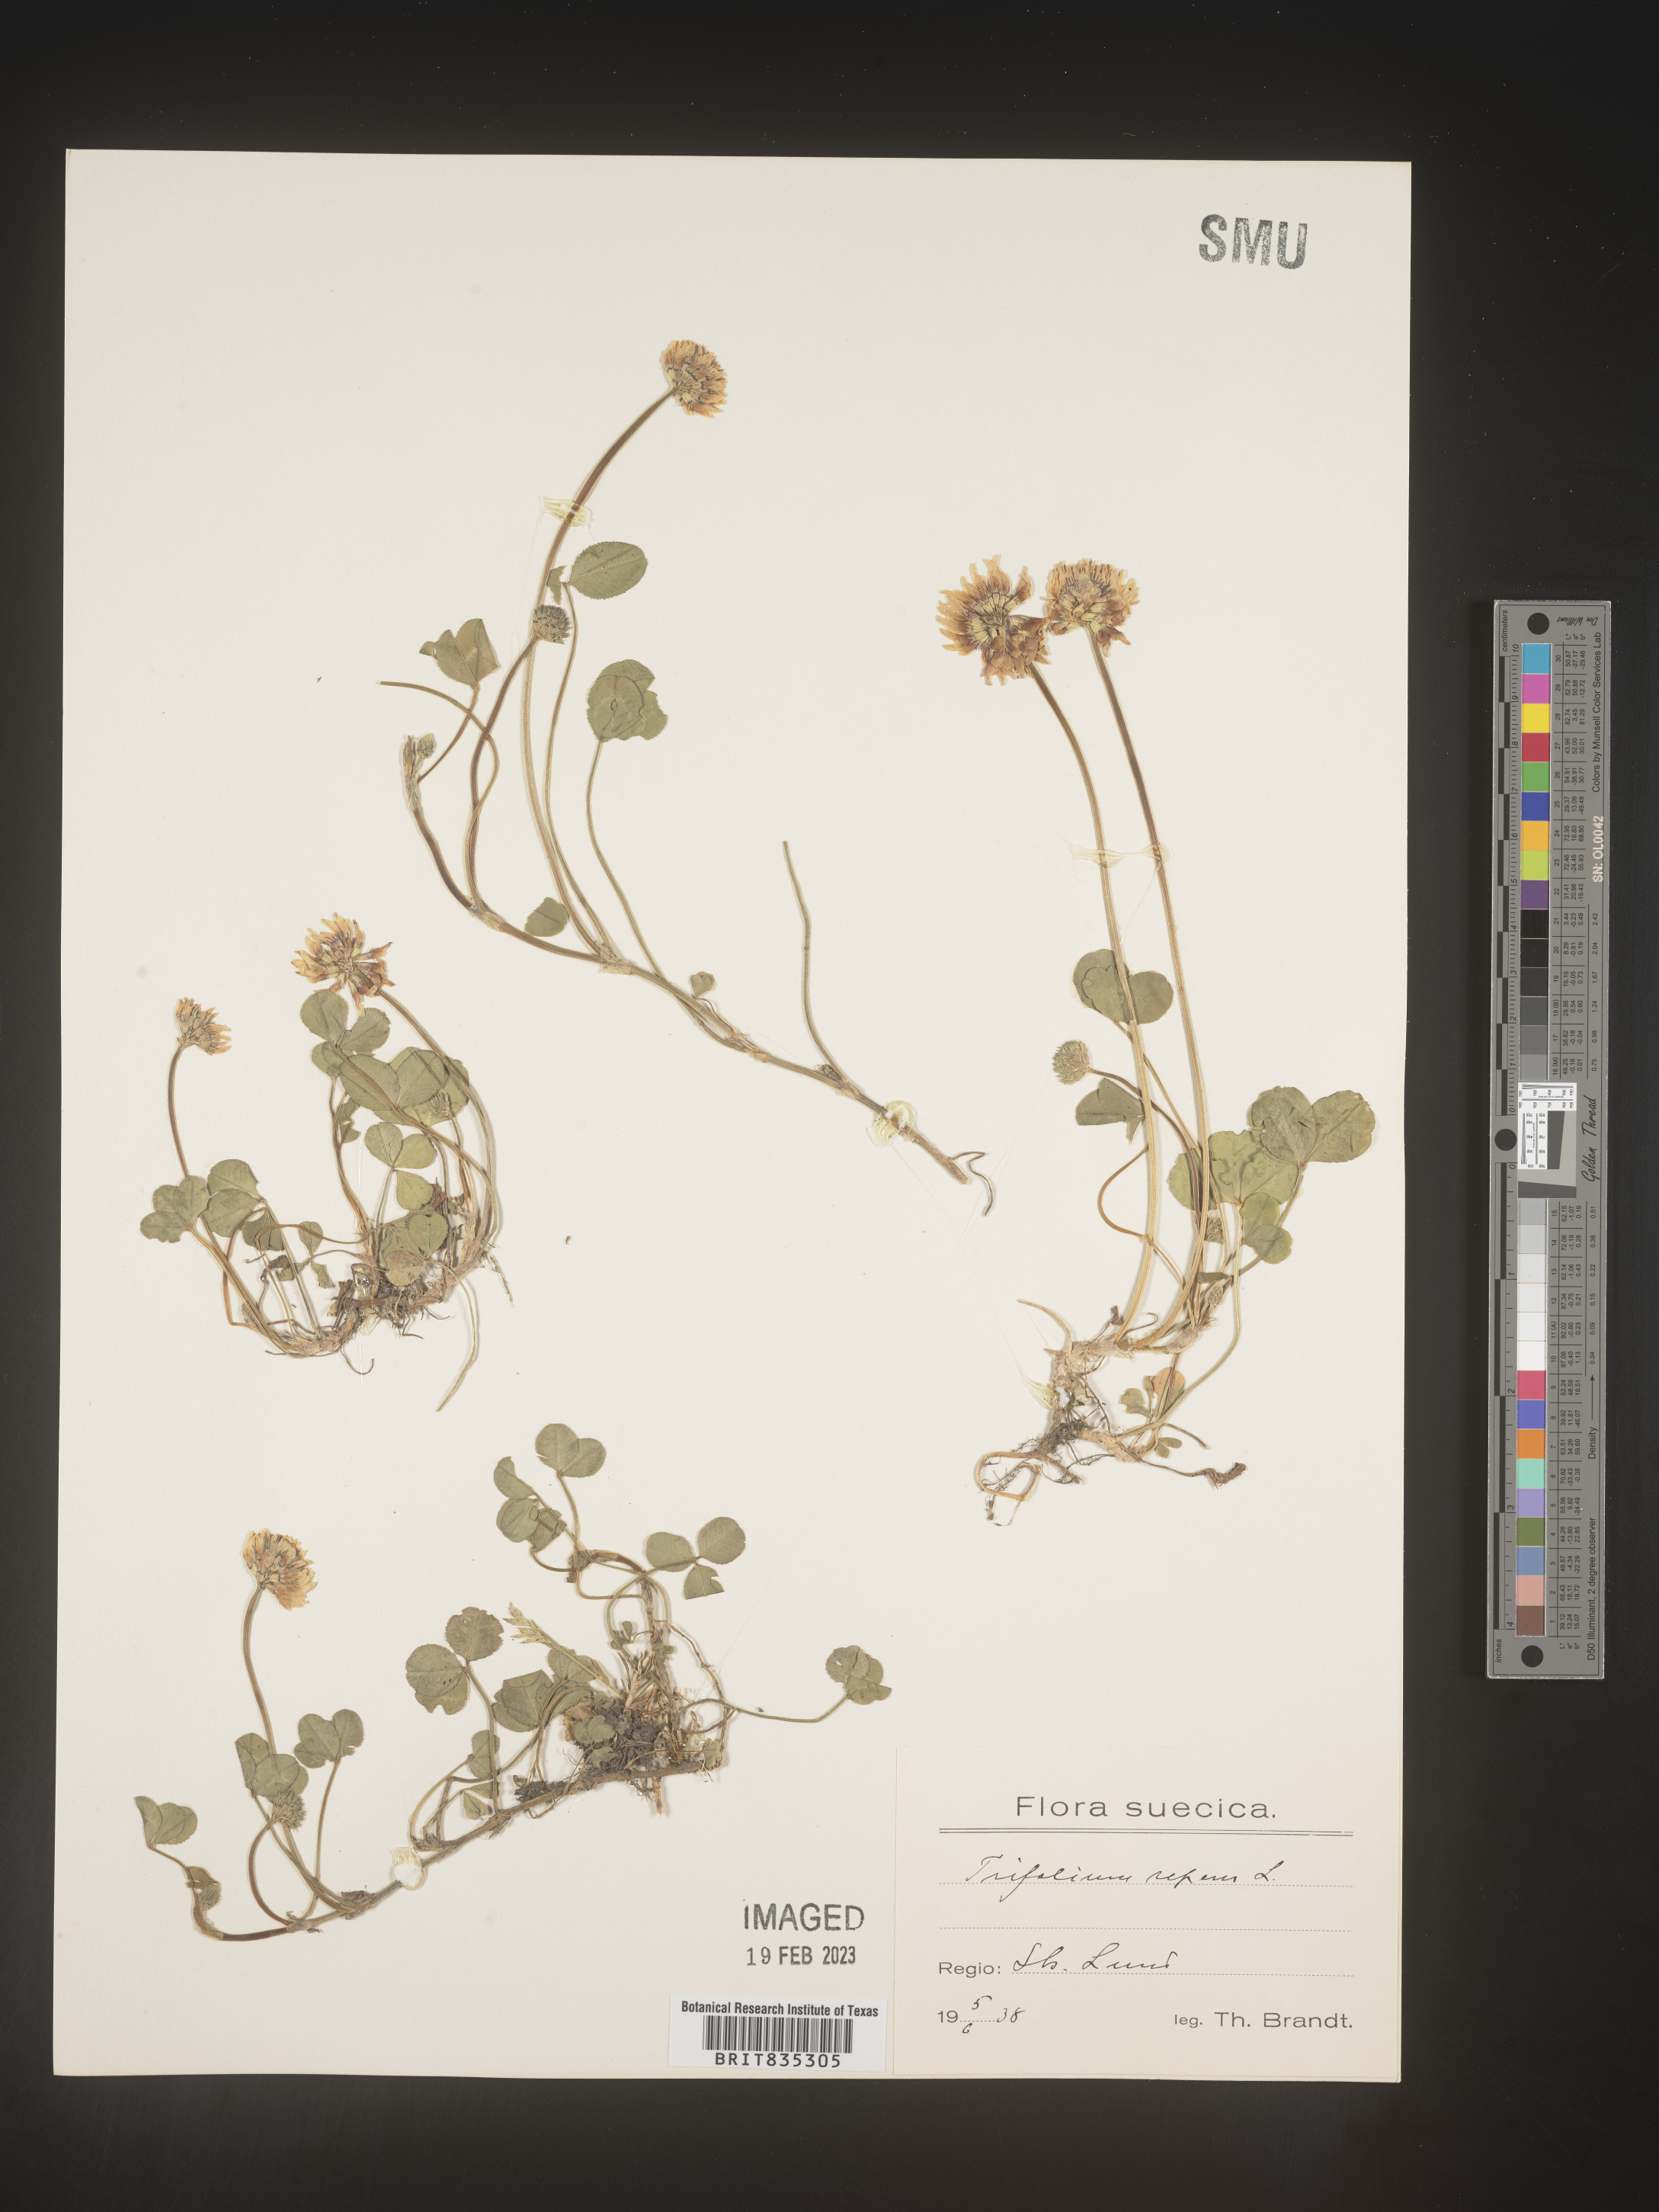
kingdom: Plantae
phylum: Tracheophyta
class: Magnoliopsida
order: Fabales
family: Fabaceae
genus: Trifolium
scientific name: Trifolium
